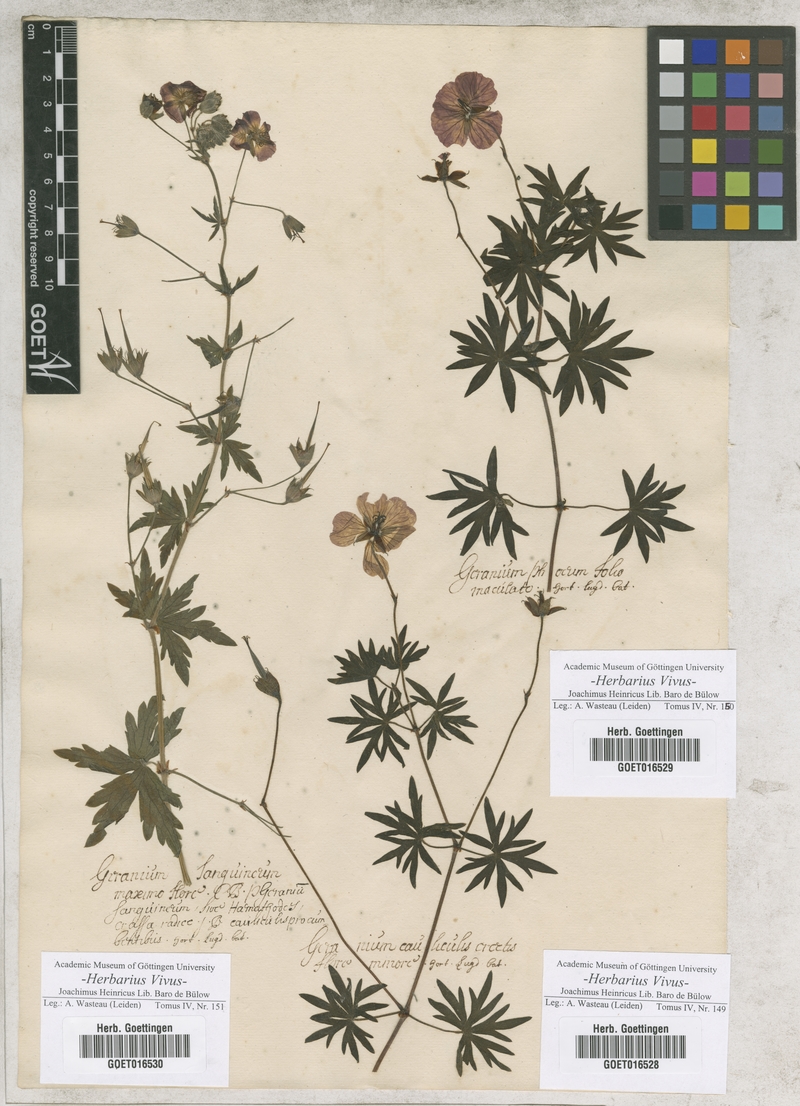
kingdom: Plantae
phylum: Tracheophyta
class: Magnoliopsida
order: Geraniales
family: Geraniaceae
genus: Geranium
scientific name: Geranium
